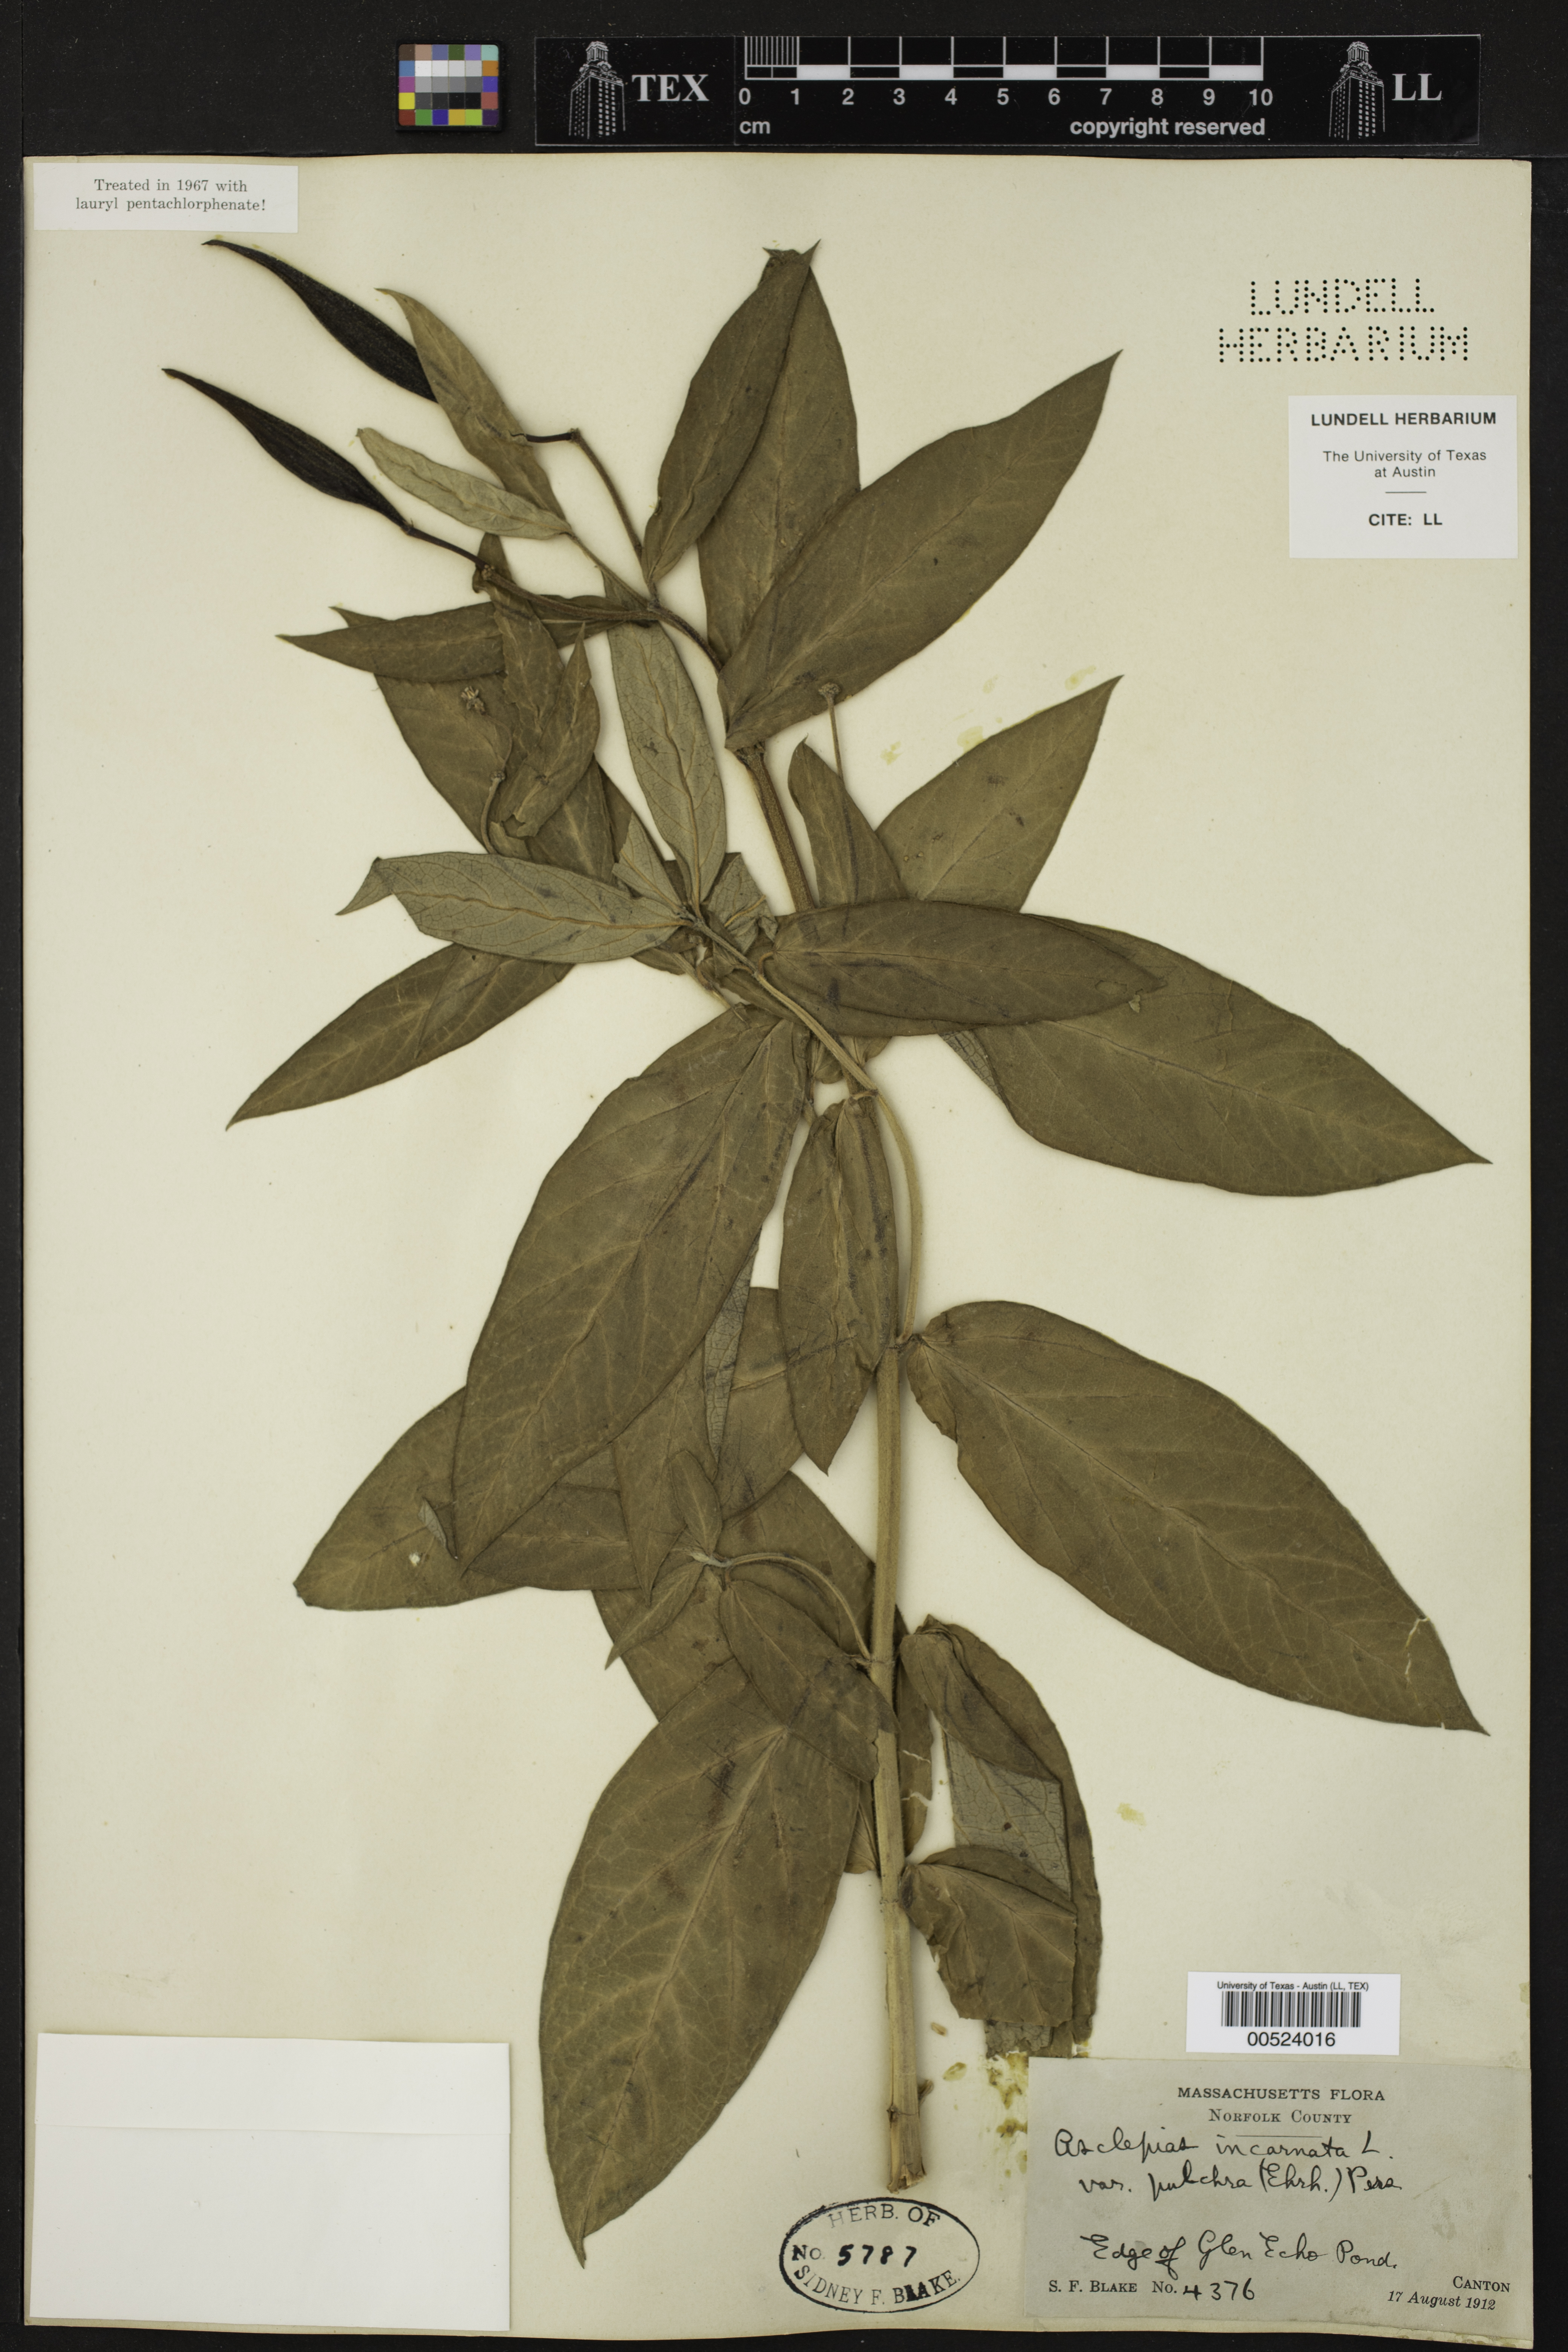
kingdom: Plantae
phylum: Tracheophyta
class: Magnoliopsida
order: Gentianales
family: Apocynaceae
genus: Asclepias
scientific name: Asclepias incarnata
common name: Swamp milkweed
